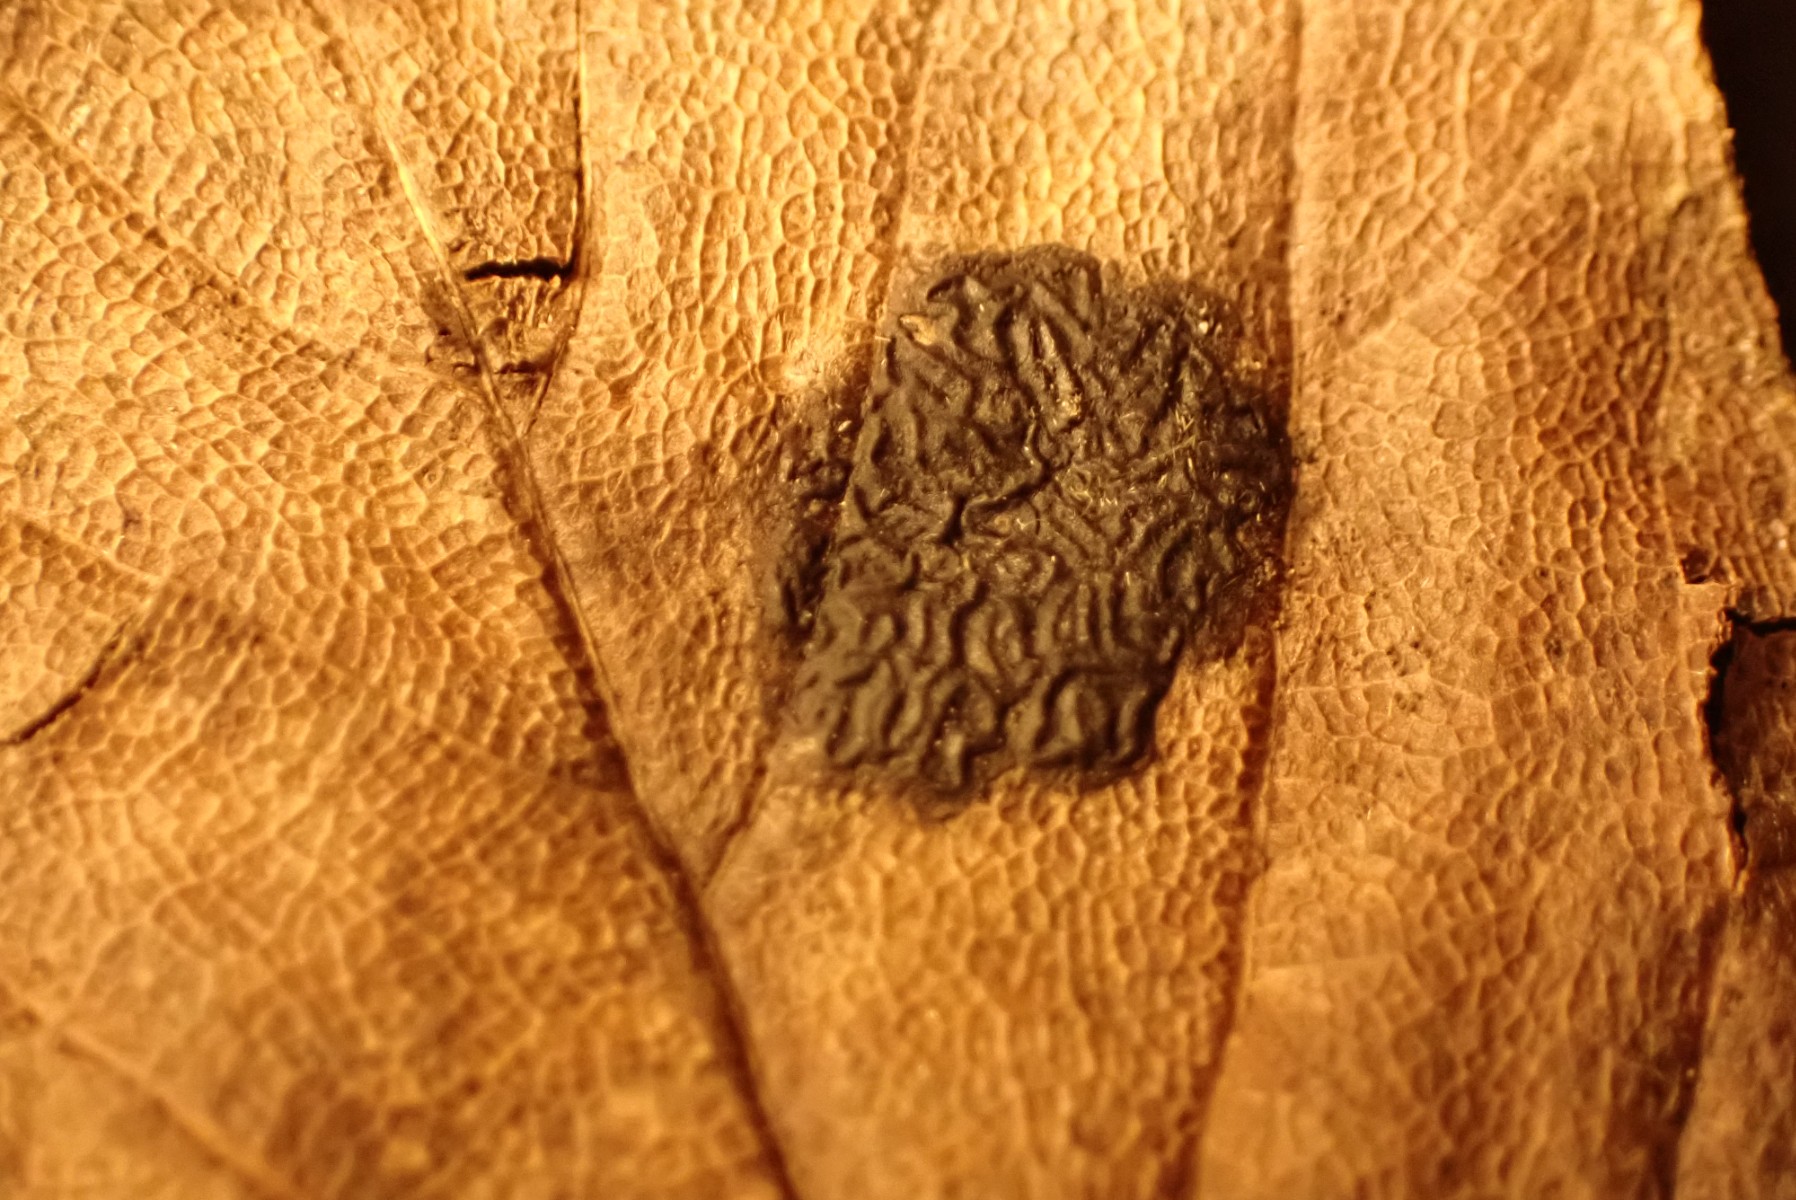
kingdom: Fungi
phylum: Ascomycota
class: Leotiomycetes
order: Rhytismatales
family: Rhytismataceae
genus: Rhytisma
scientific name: Rhytisma acerinum
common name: ahorn-rynkeplet
